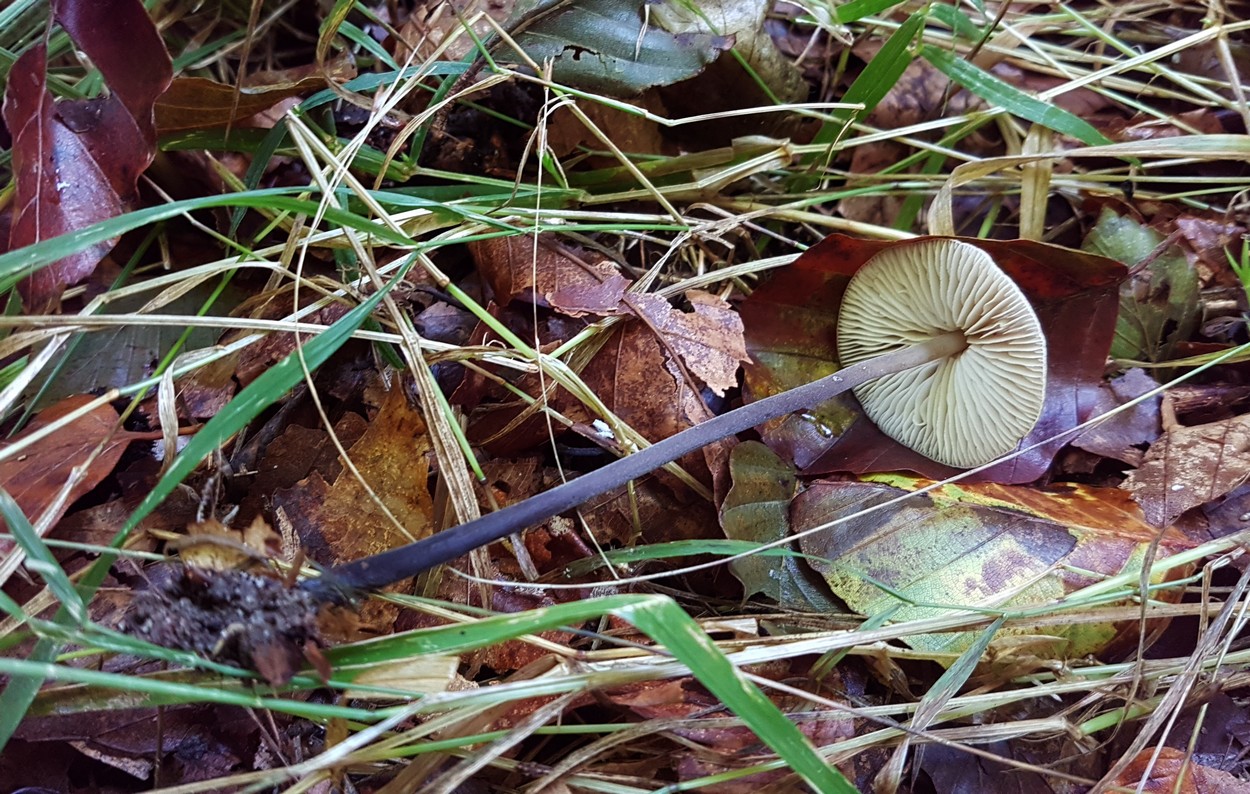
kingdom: Fungi
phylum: Basidiomycota
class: Agaricomycetes
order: Agaricales
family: Omphalotaceae
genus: Mycetinis
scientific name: Mycetinis alliaceus
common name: stor løghat
